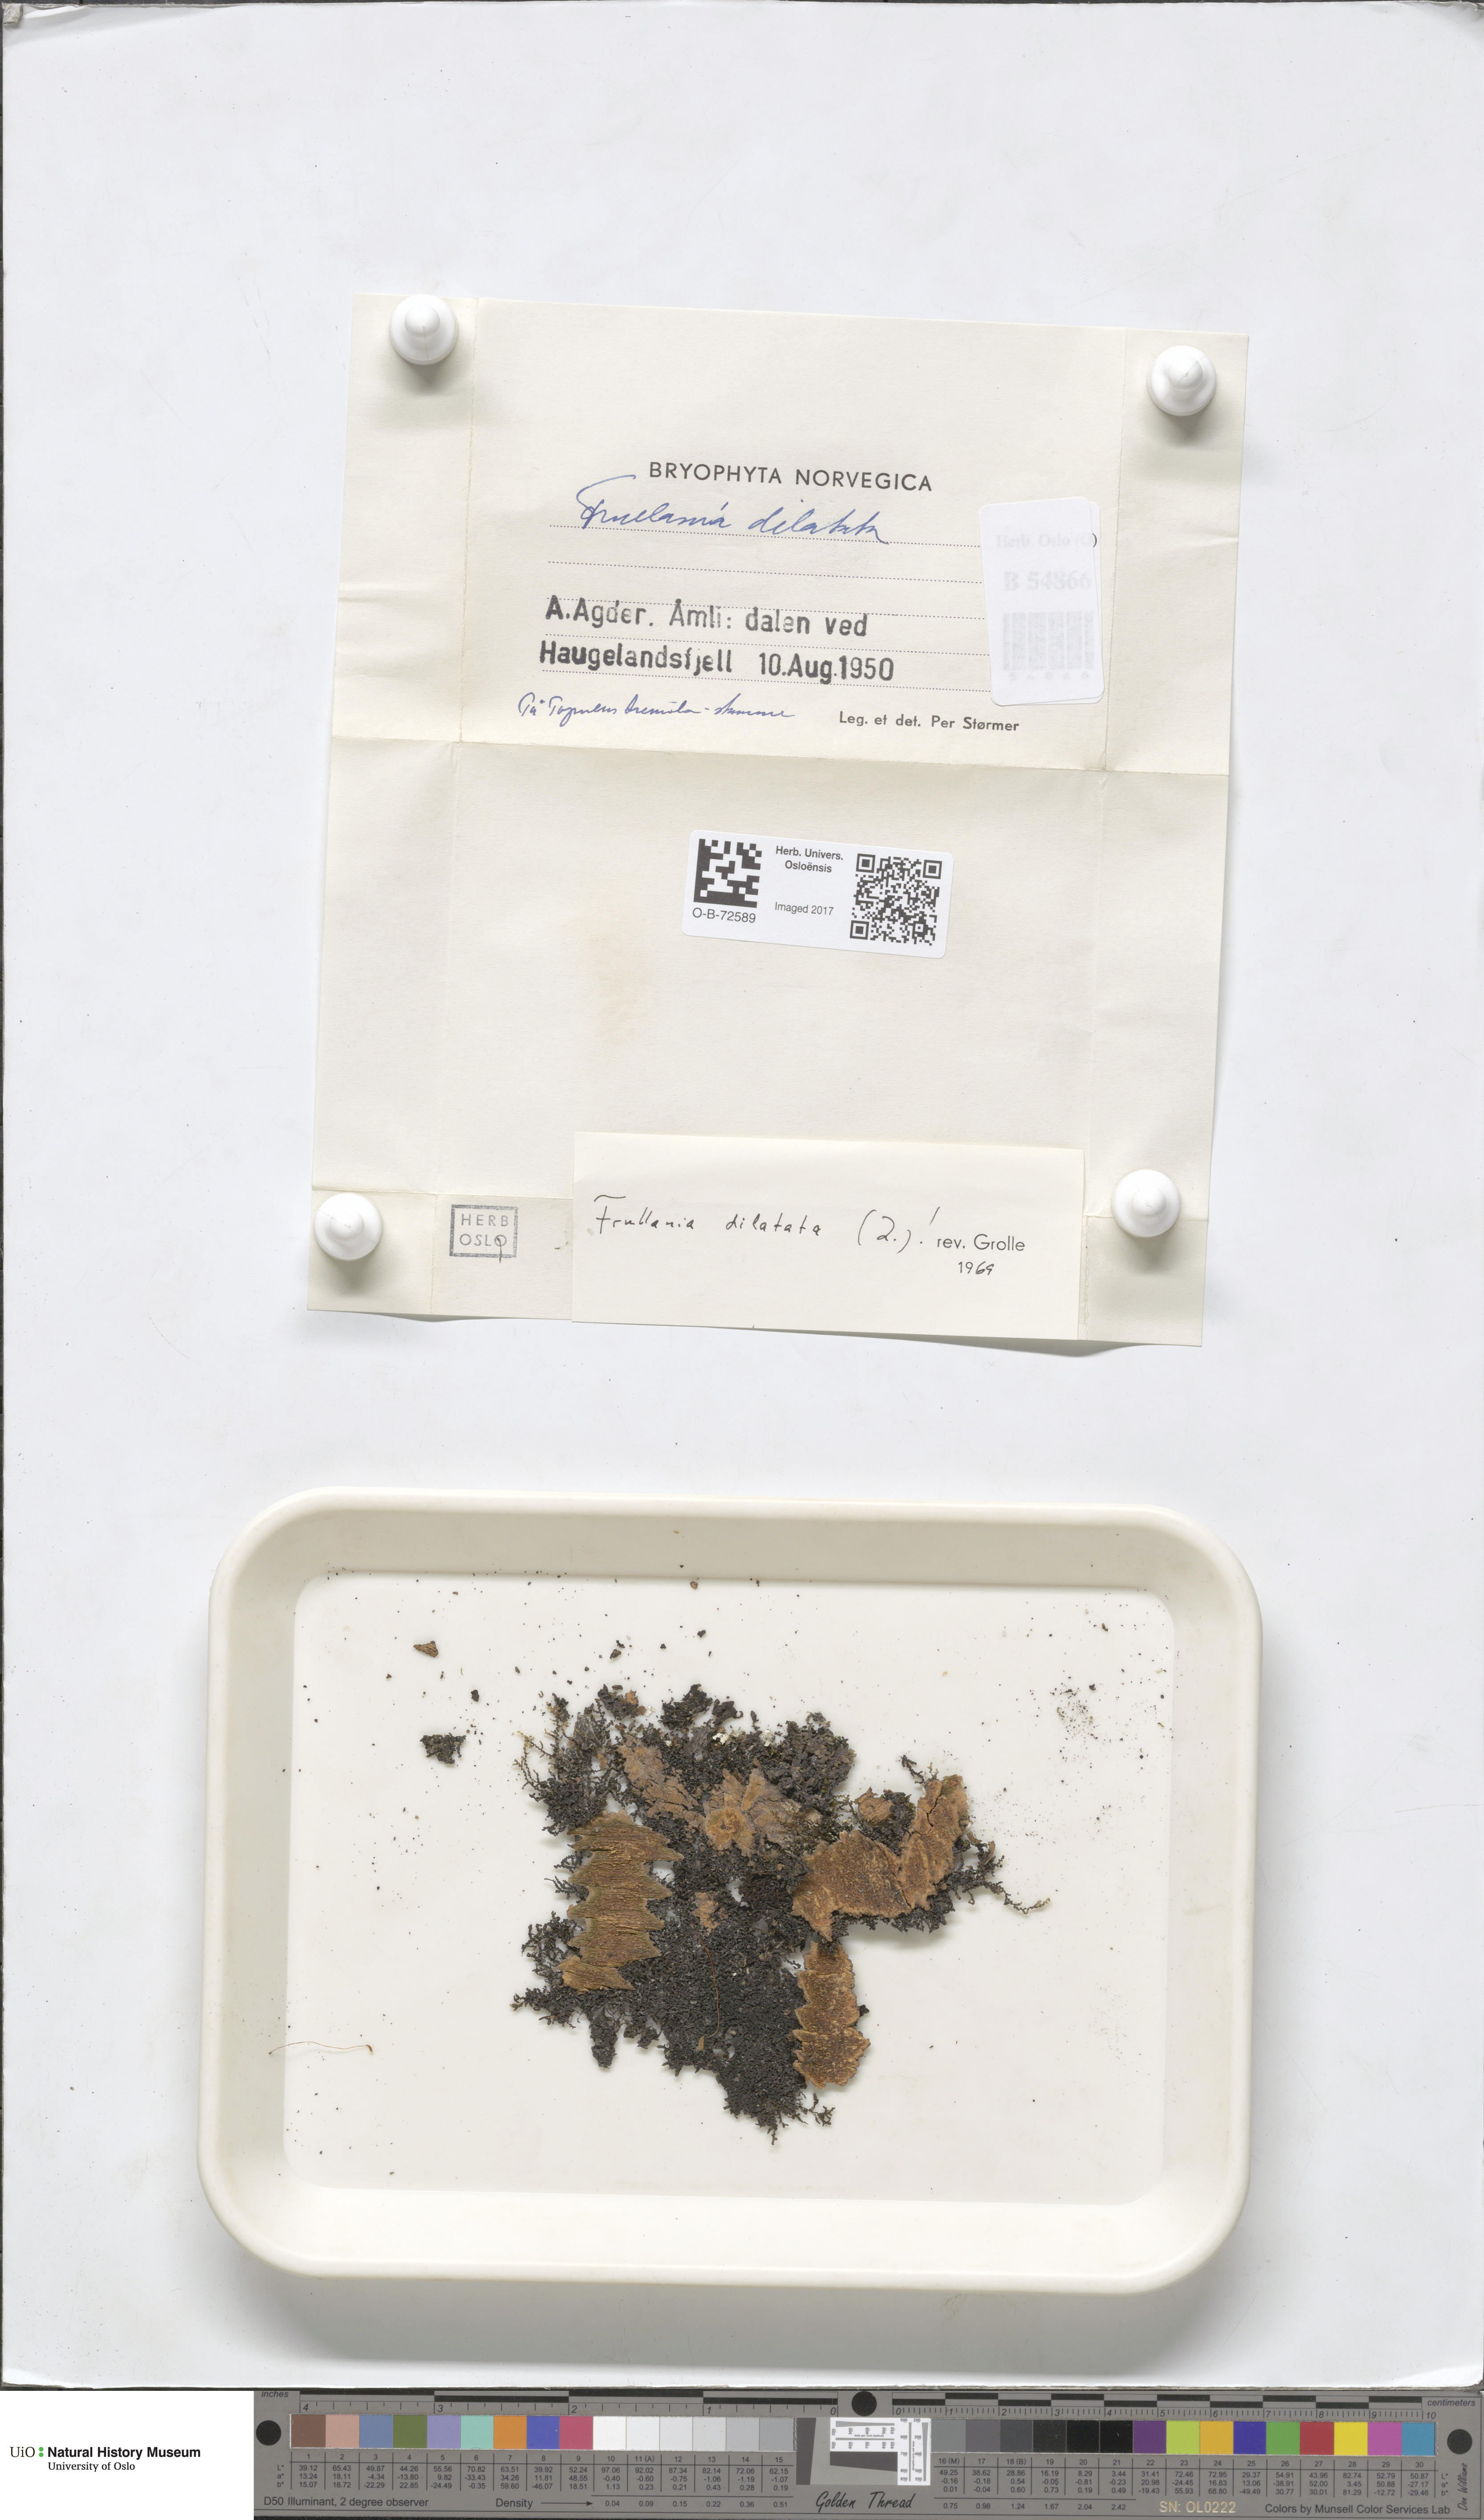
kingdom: Plantae
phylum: Marchantiophyta
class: Jungermanniopsida
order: Porellales
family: Frullaniaceae
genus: Frullania
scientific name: Frullania dilatata
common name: Dilated scalewort
